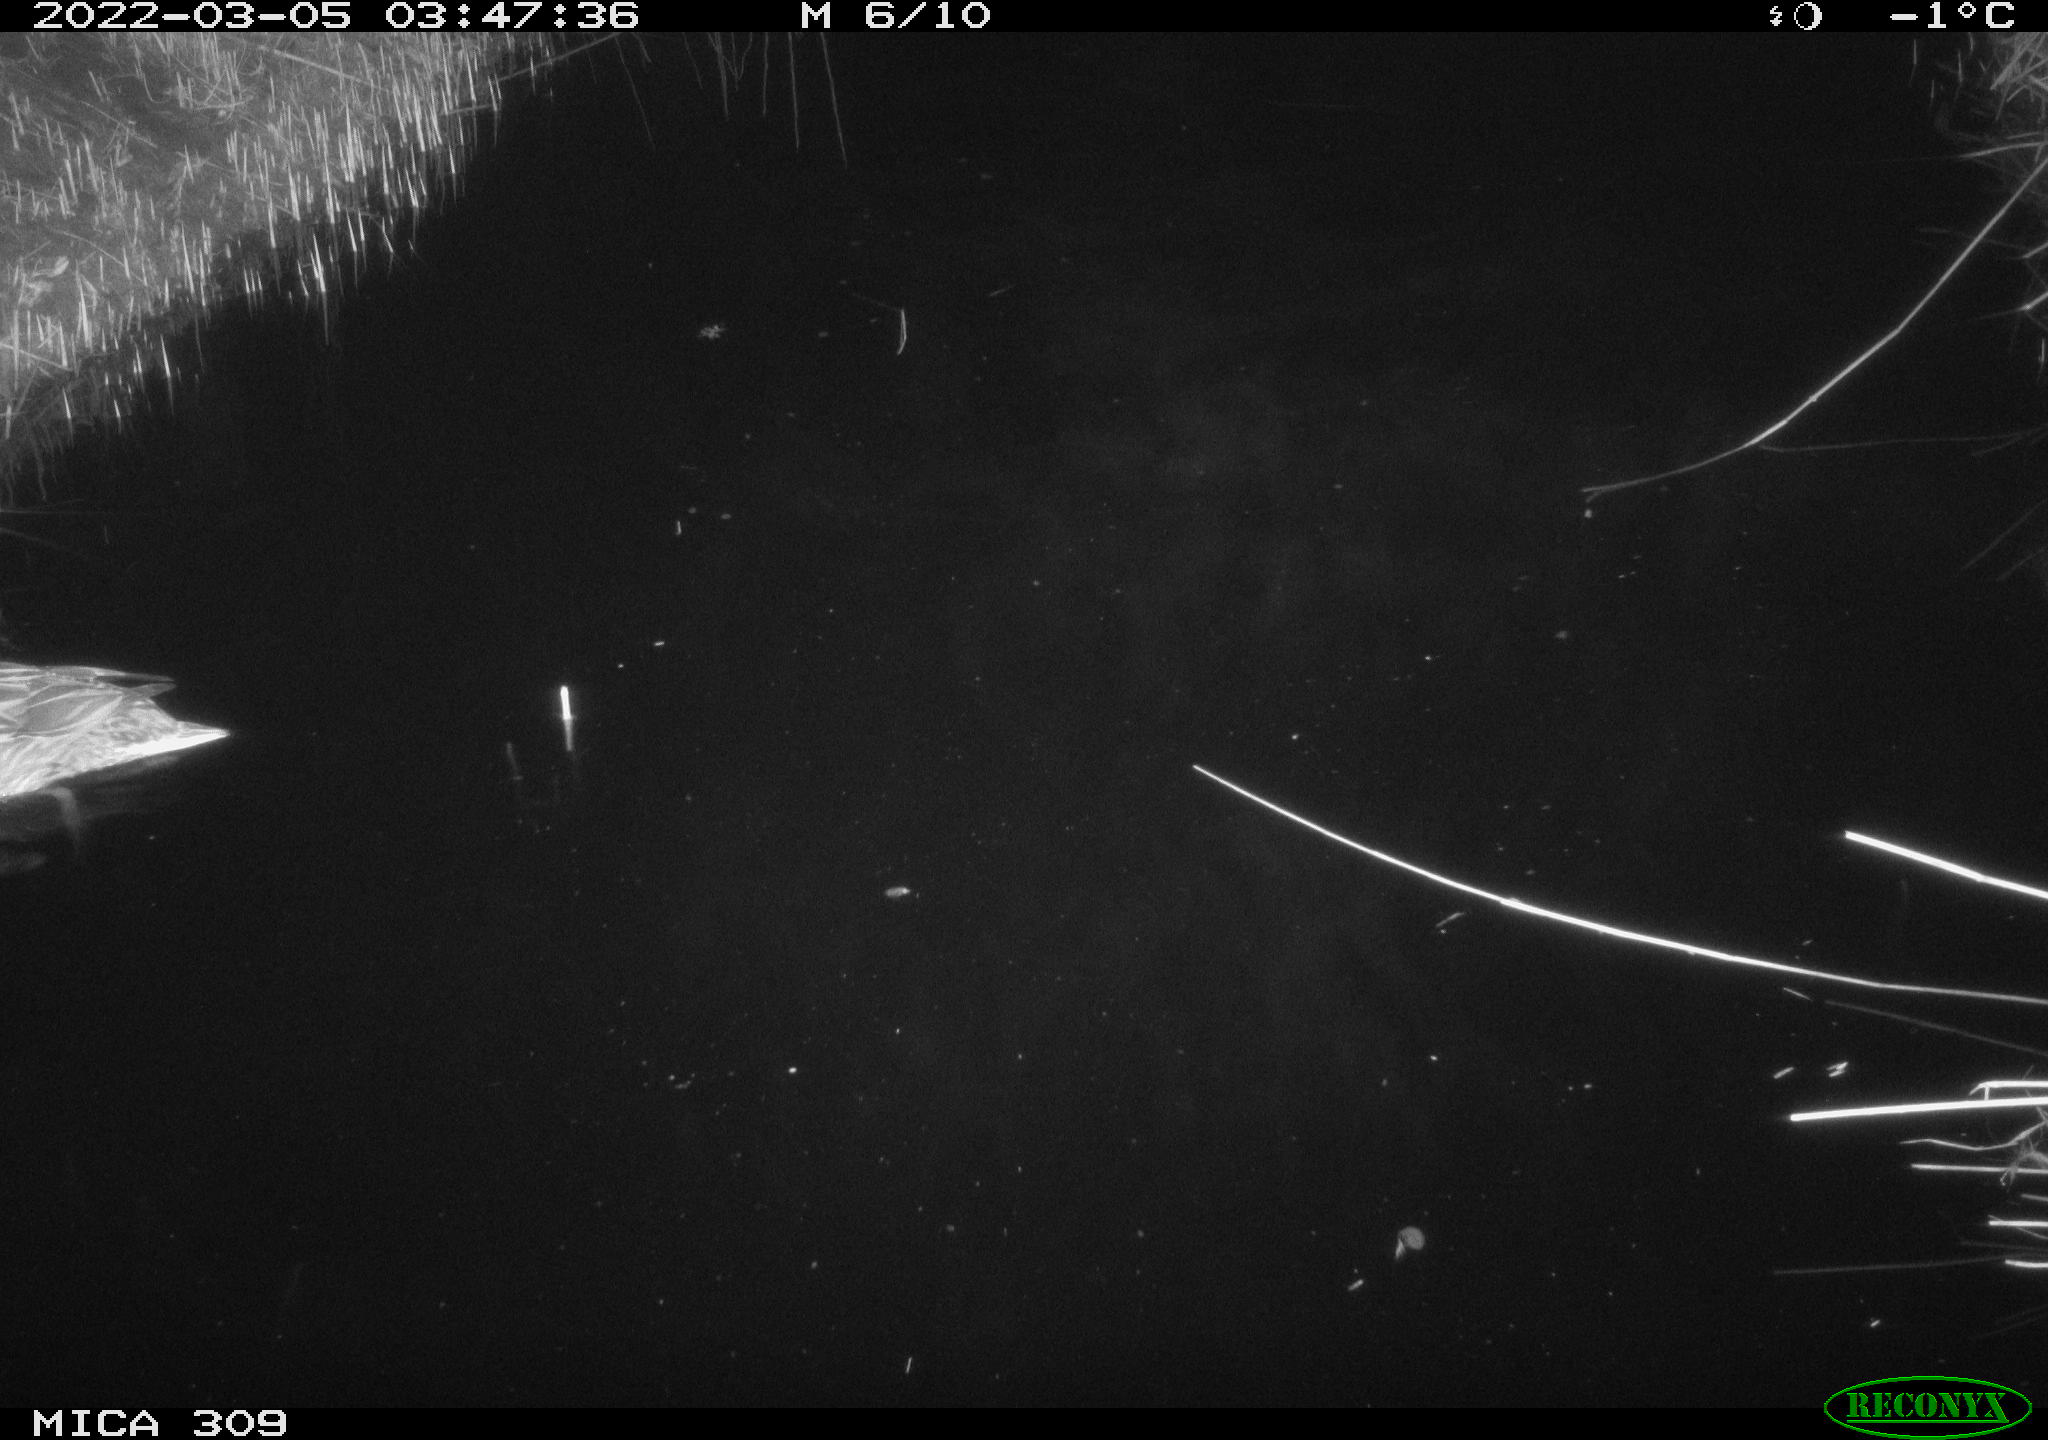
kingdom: Animalia
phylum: Chordata
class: Aves
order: Anseriformes
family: Anatidae
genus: Anas
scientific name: Anas platyrhynchos
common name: Mallard
